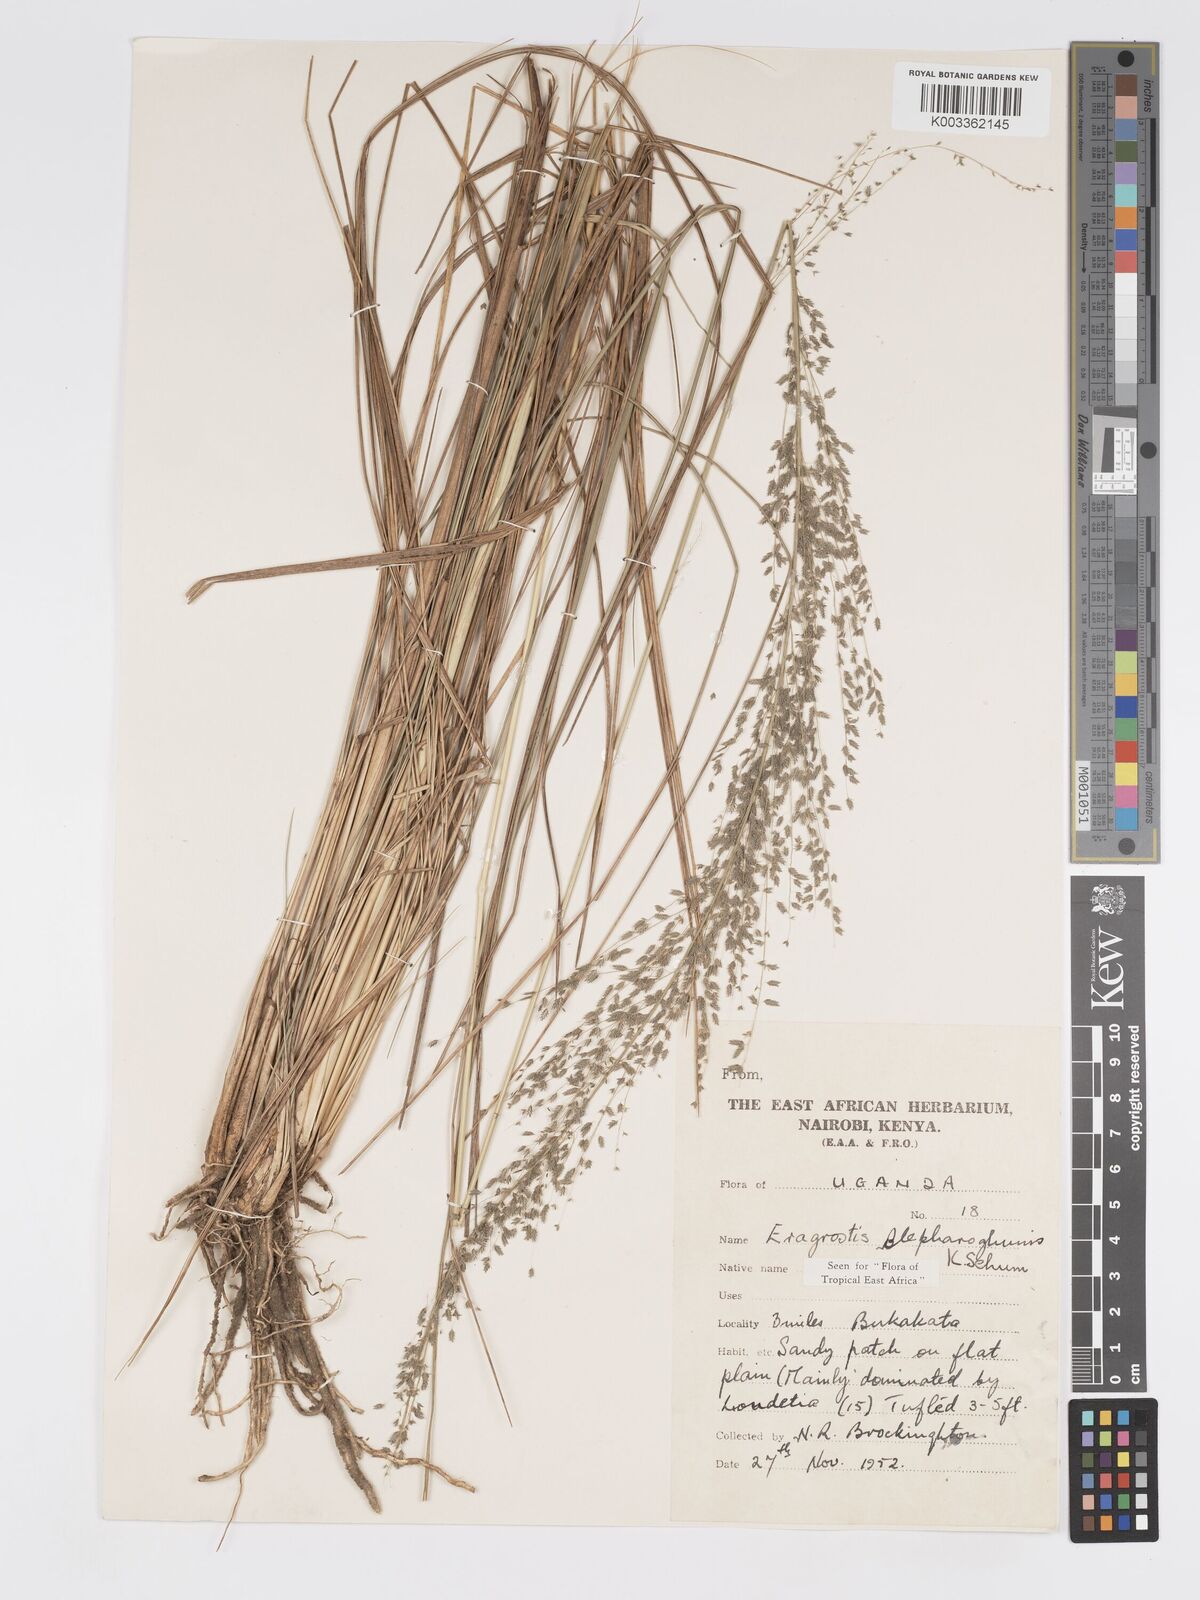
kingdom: Plantae
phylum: Tracheophyta
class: Liliopsida
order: Poales
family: Poaceae
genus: Eragrostis
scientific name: Eragrostis olivacea
